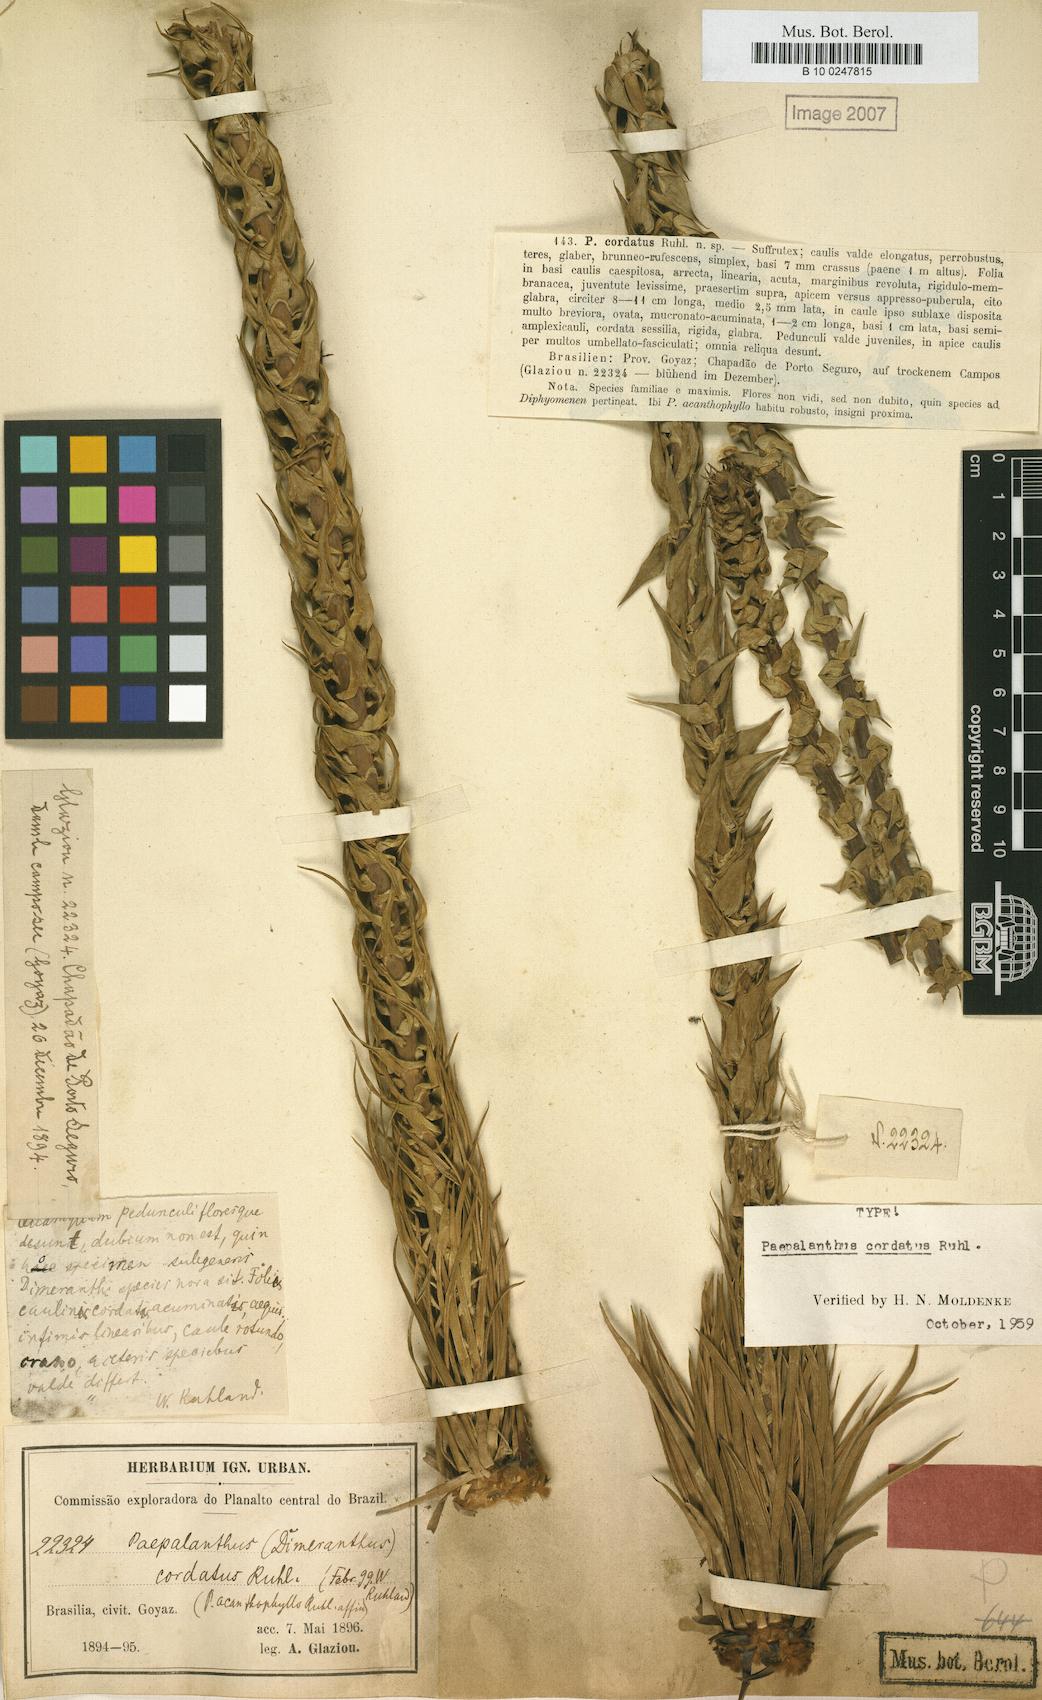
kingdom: Plantae
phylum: Tracheophyta
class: Liliopsida
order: Poales
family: Eriocaulaceae
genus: Paepalanthus
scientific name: Paepalanthus cordatus
